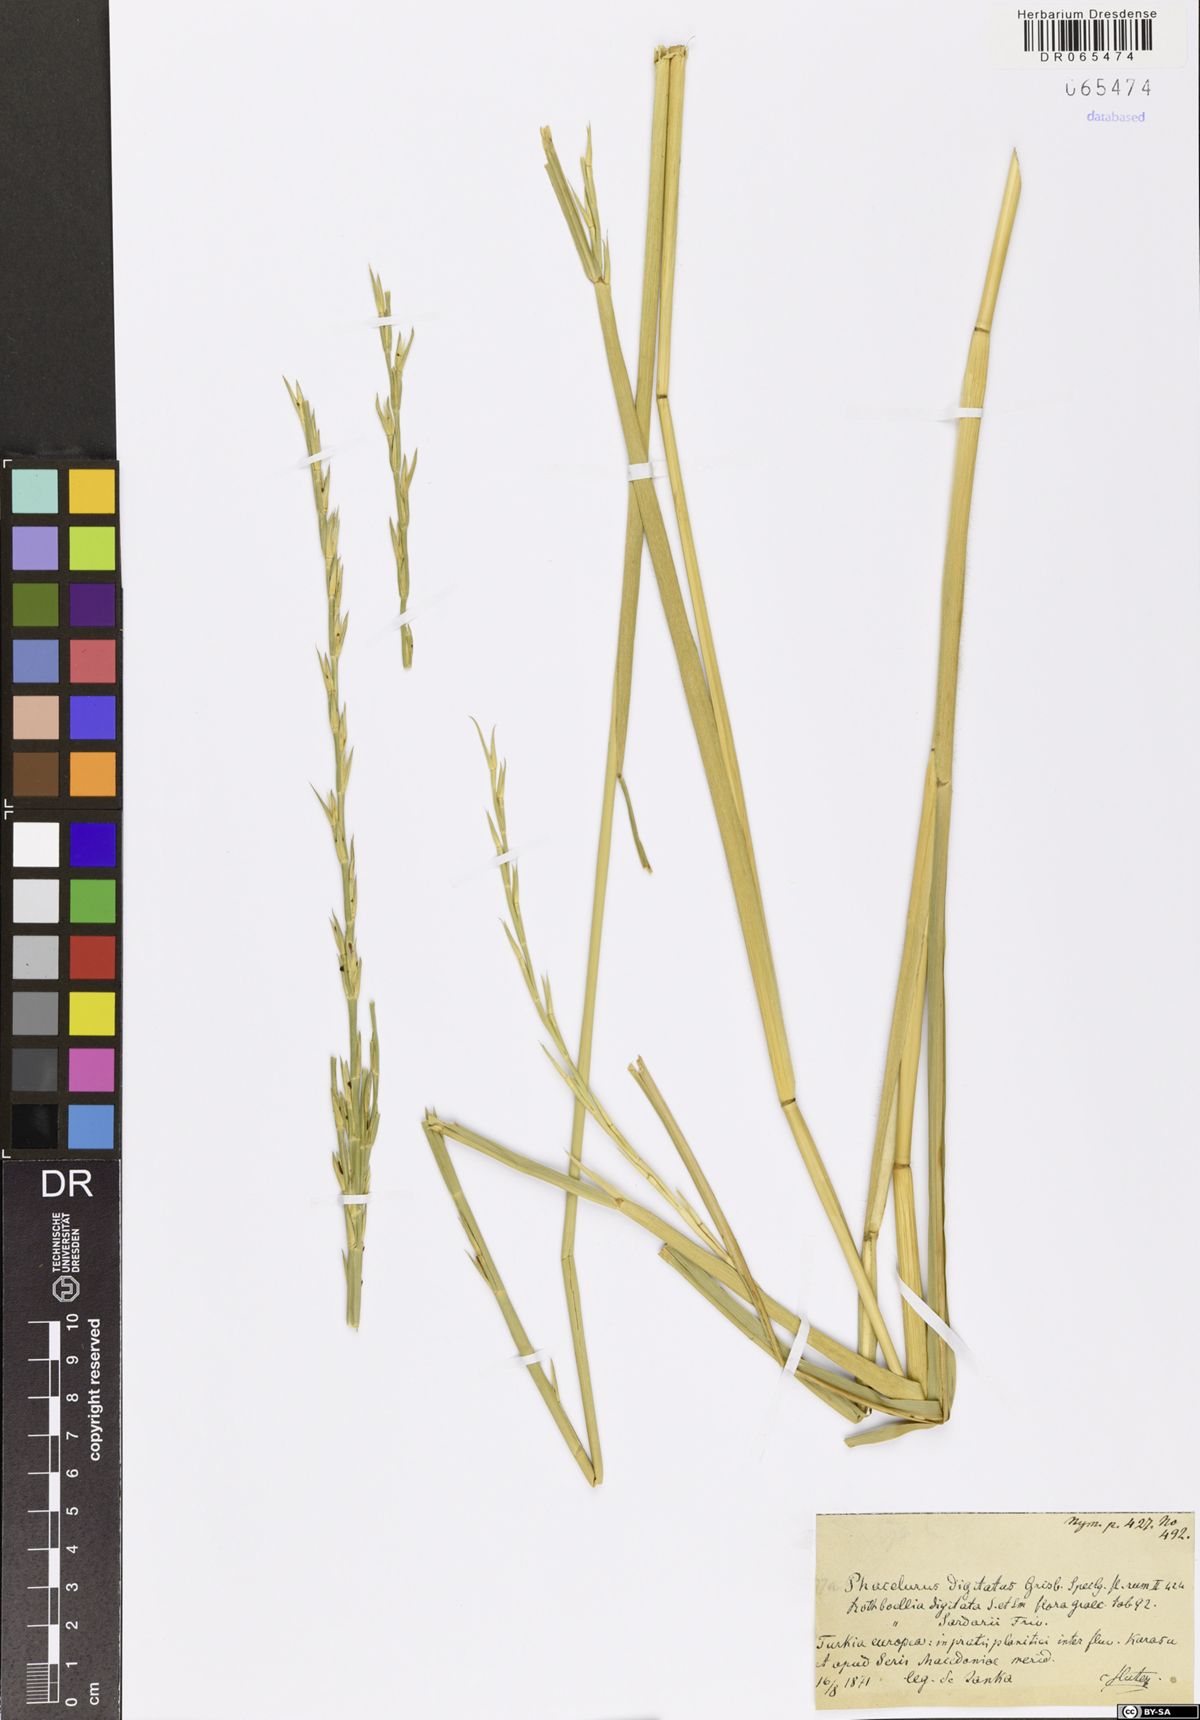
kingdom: Plantae
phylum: Tracheophyta
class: Liliopsida
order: Poales
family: Poaceae
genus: Phacelurus
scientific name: Phacelurus digitatus
